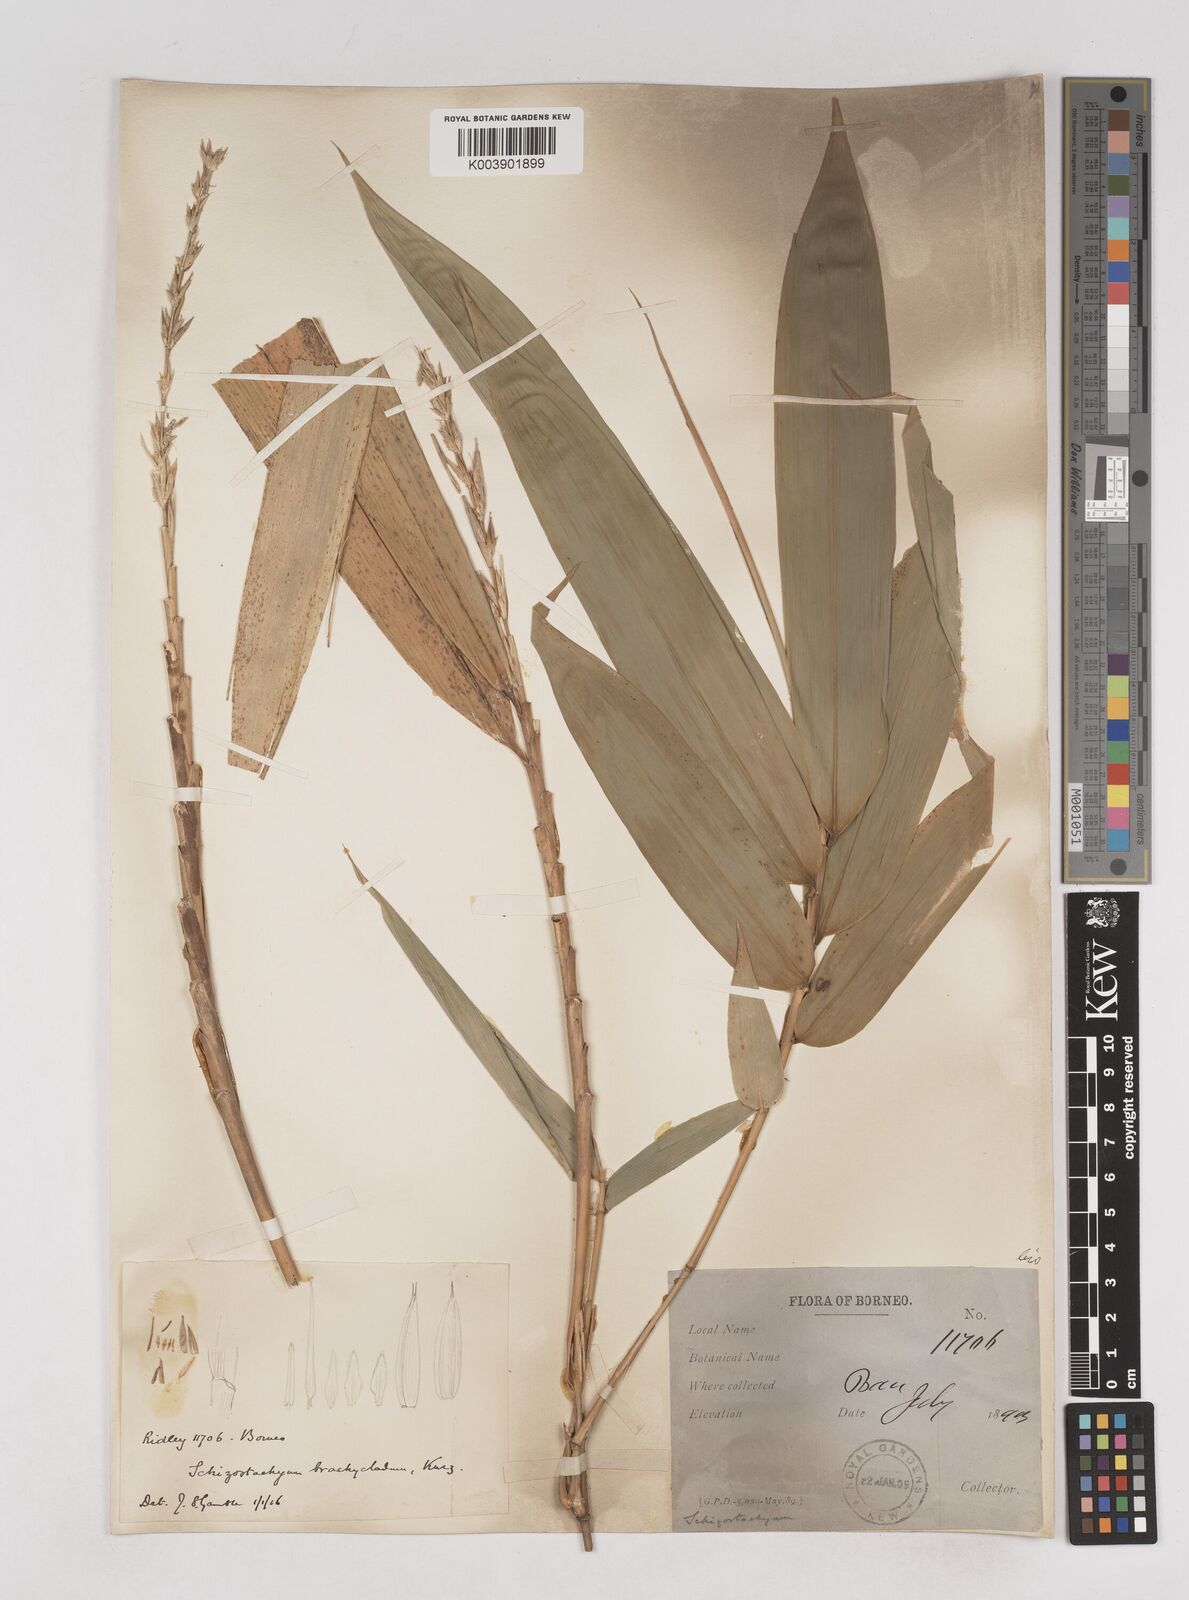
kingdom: Plantae
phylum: Tracheophyta
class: Liliopsida
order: Poales
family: Poaceae
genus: Schizostachyum
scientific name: Schizostachyum brachycladum
